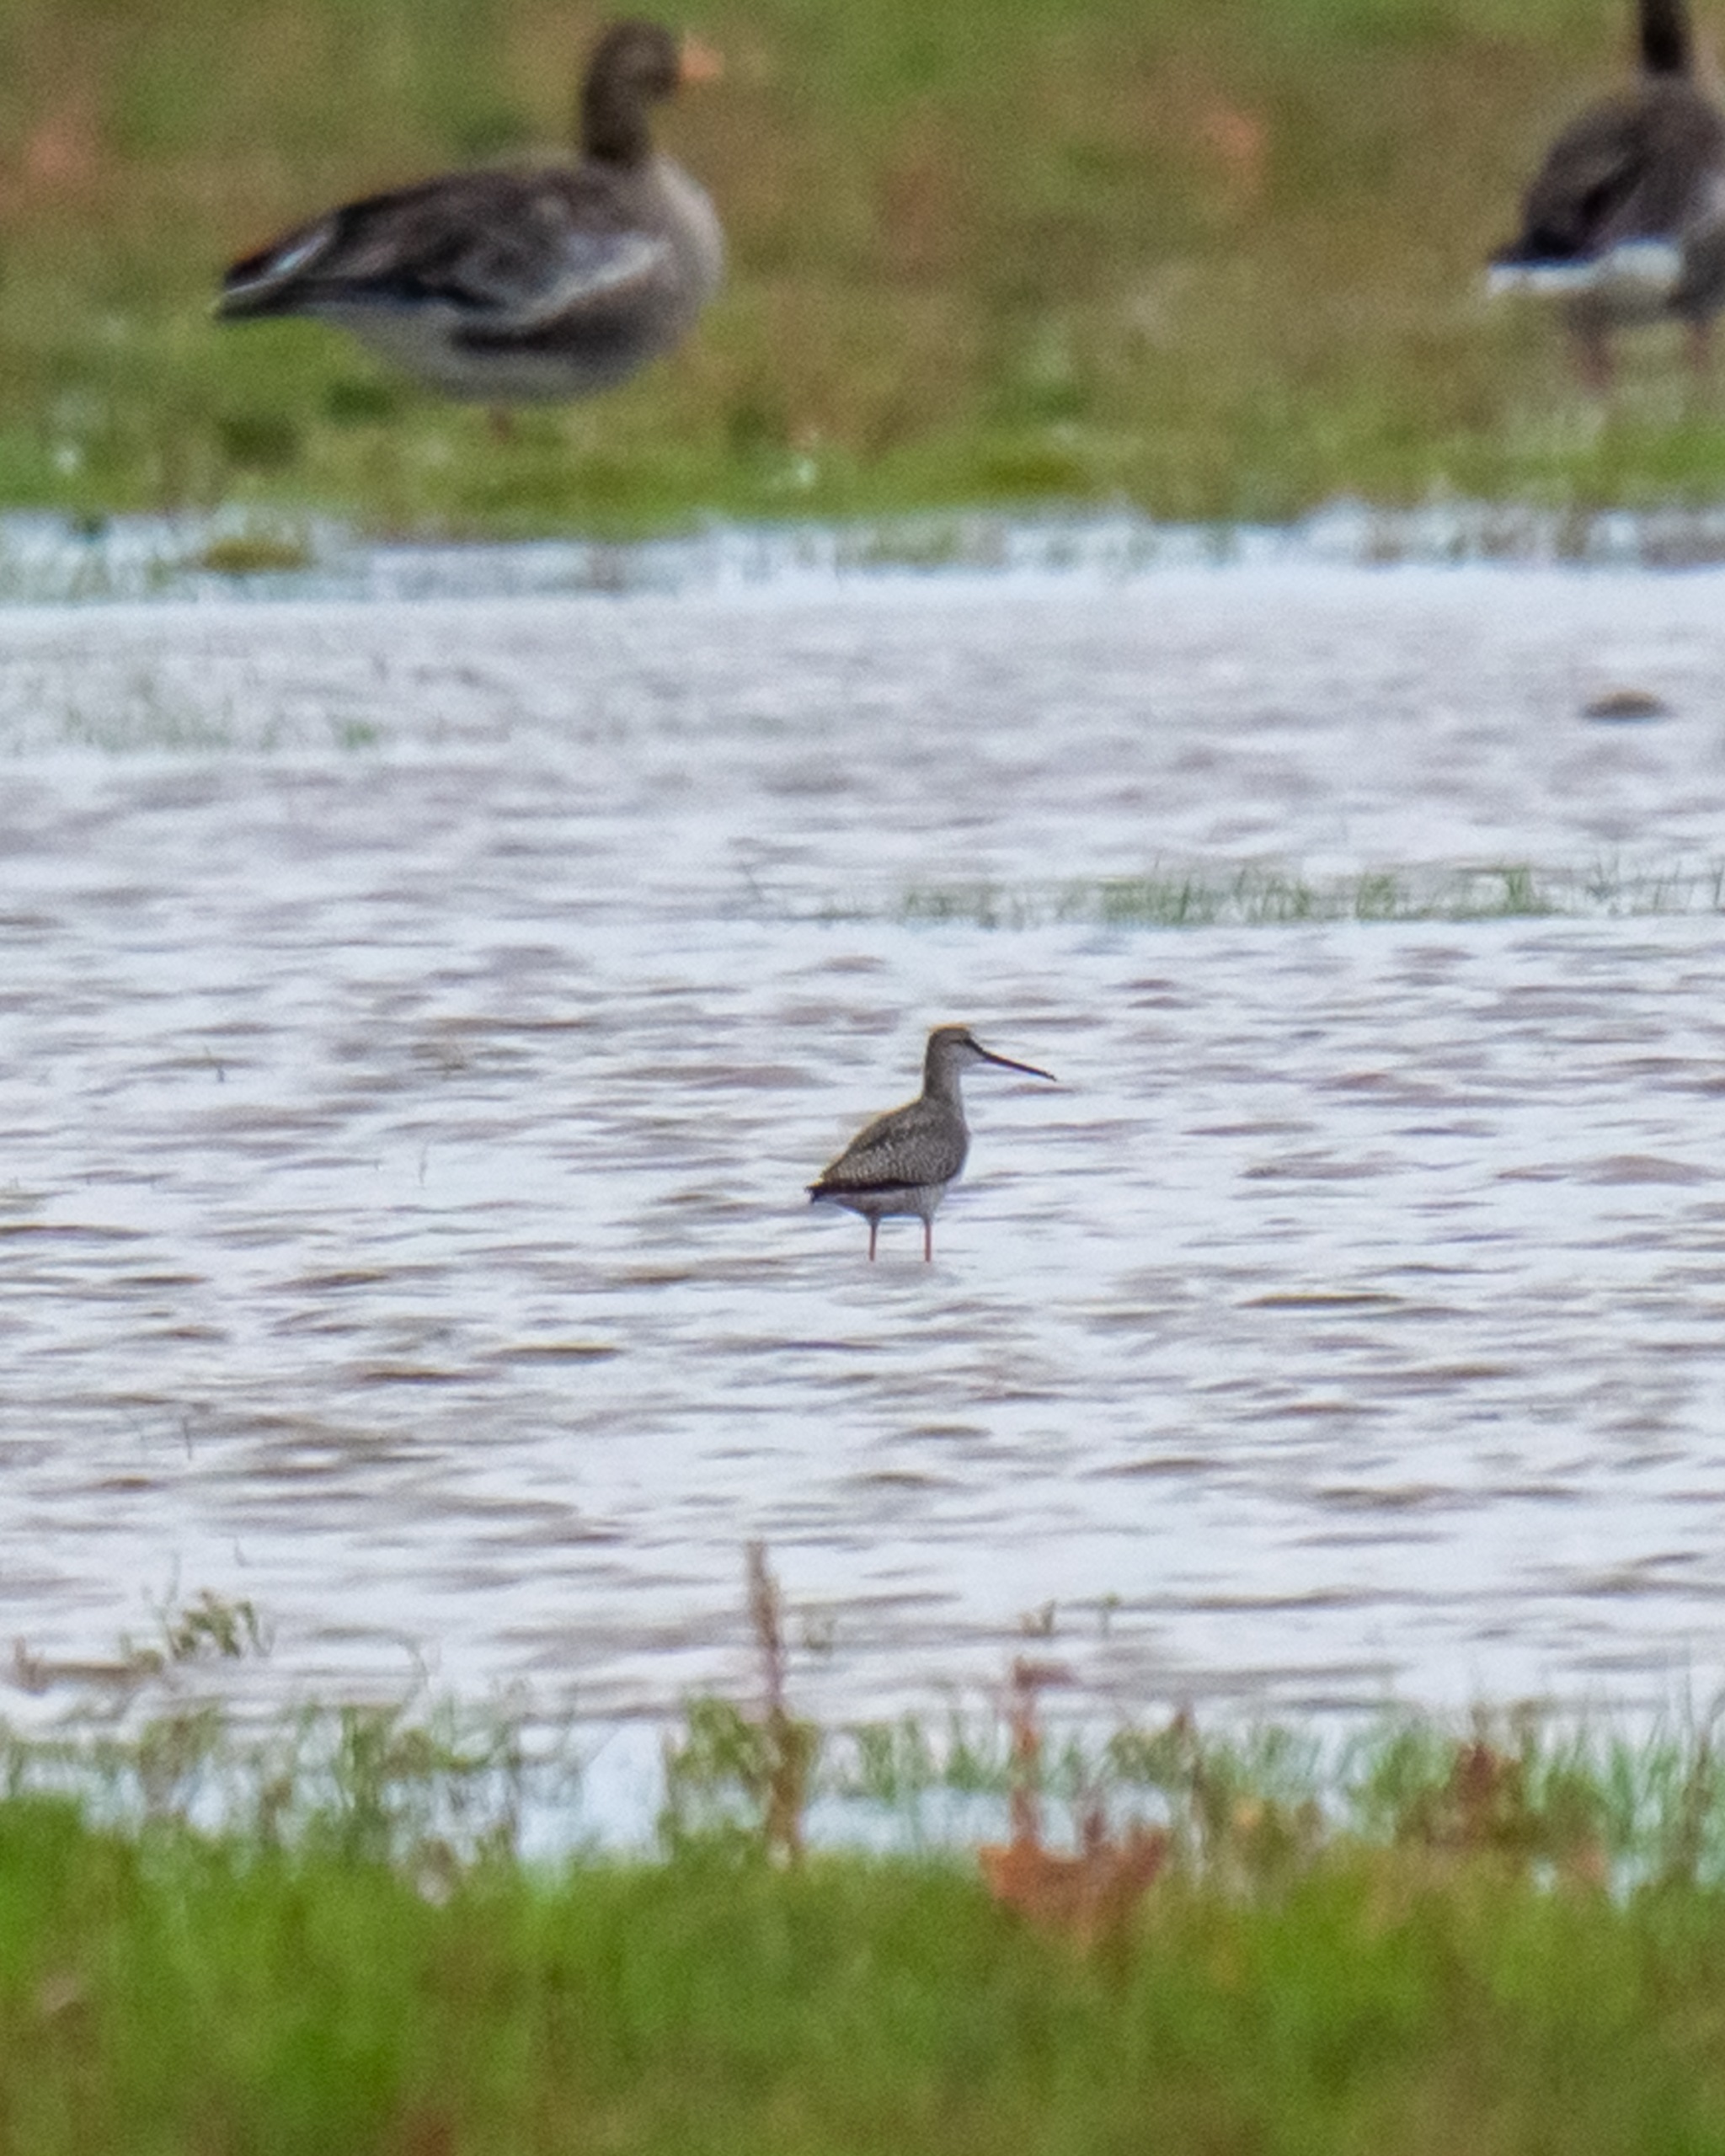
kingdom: Animalia
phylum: Chordata
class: Aves
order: Charadriiformes
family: Scolopacidae
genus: Tringa
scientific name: Tringa erythropus
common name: Sortklire
